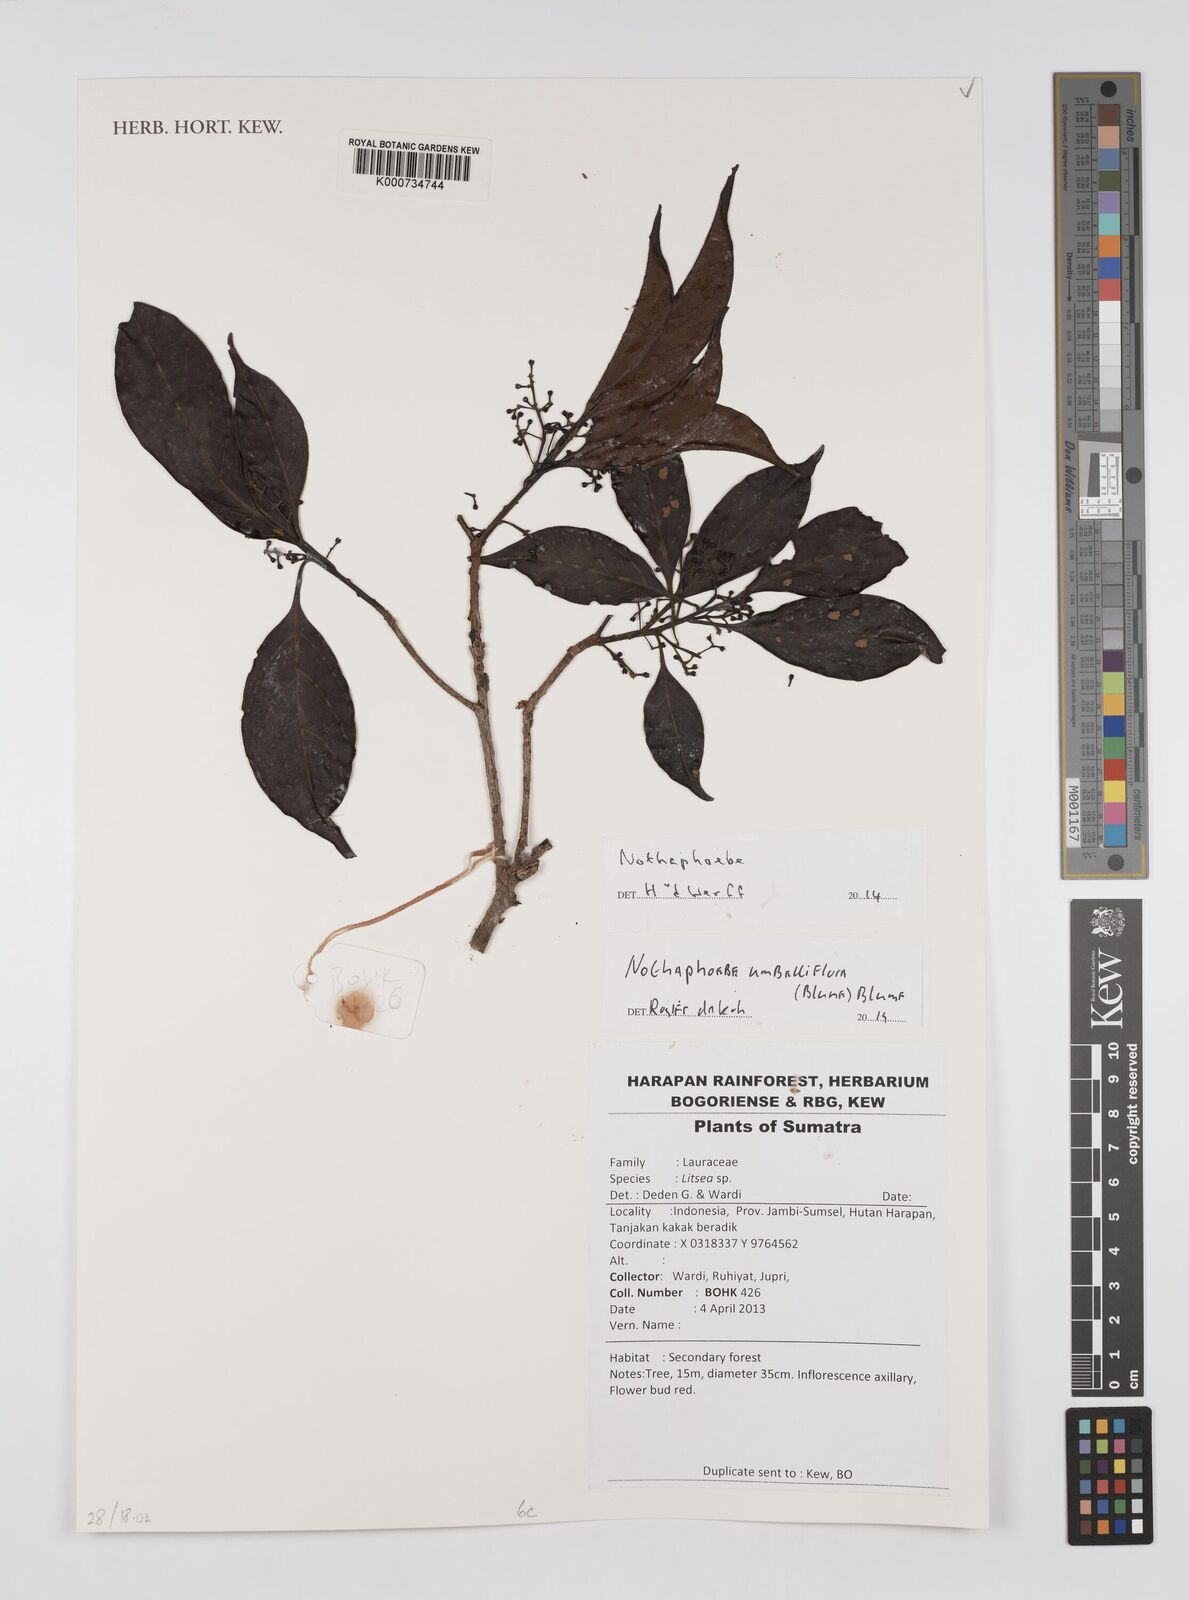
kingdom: Plantae
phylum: Tracheophyta
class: Magnoliopsida
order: Laurales
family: Lauraceae
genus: Nothaphoebe
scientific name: Nothaphoebe umbelliflora
